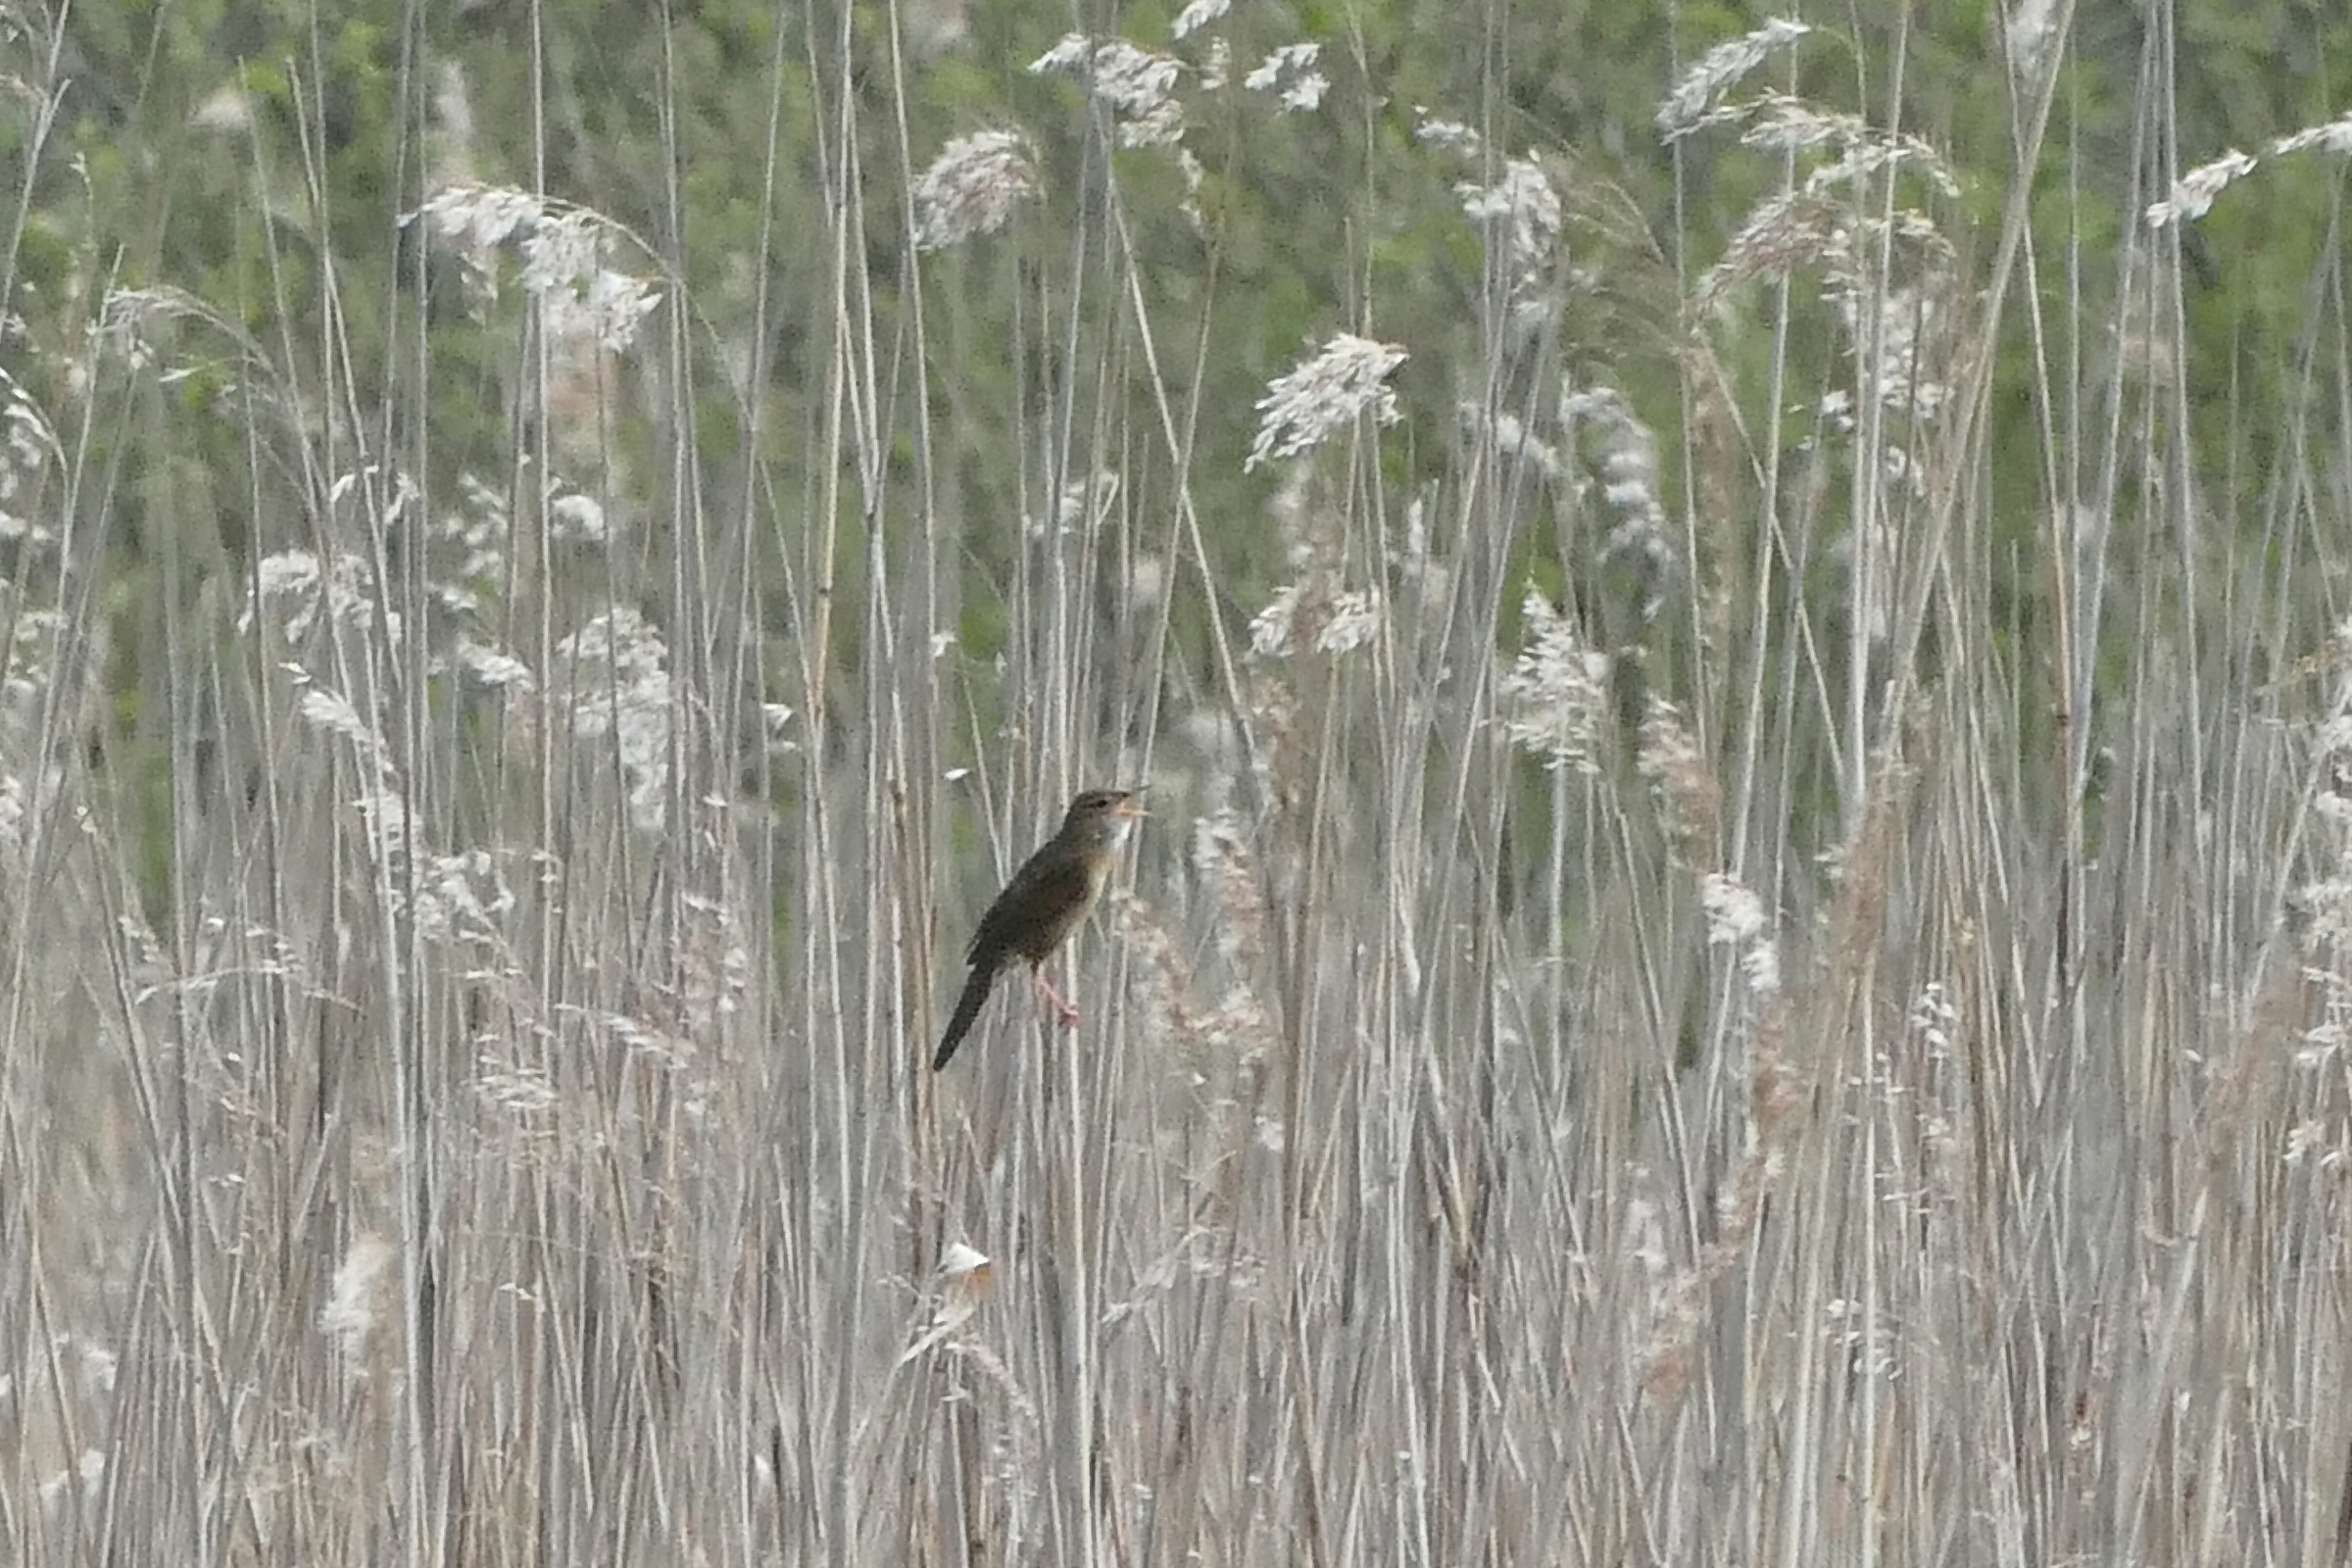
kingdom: Animalia
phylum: Chordata
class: Aves
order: Passeriformes
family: Locustellidae
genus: Locustella
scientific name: Locustella naevia
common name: Græshoppesanger
